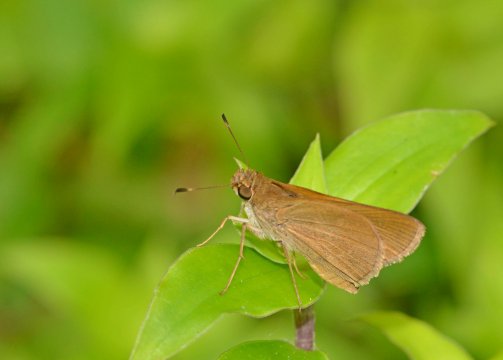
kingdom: Animalia
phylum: Arthropoda
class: Insecta
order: Lepidoptera
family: Hesperiidae
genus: Euphyes
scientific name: Euphyes pilatka
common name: Palatka Skipper
